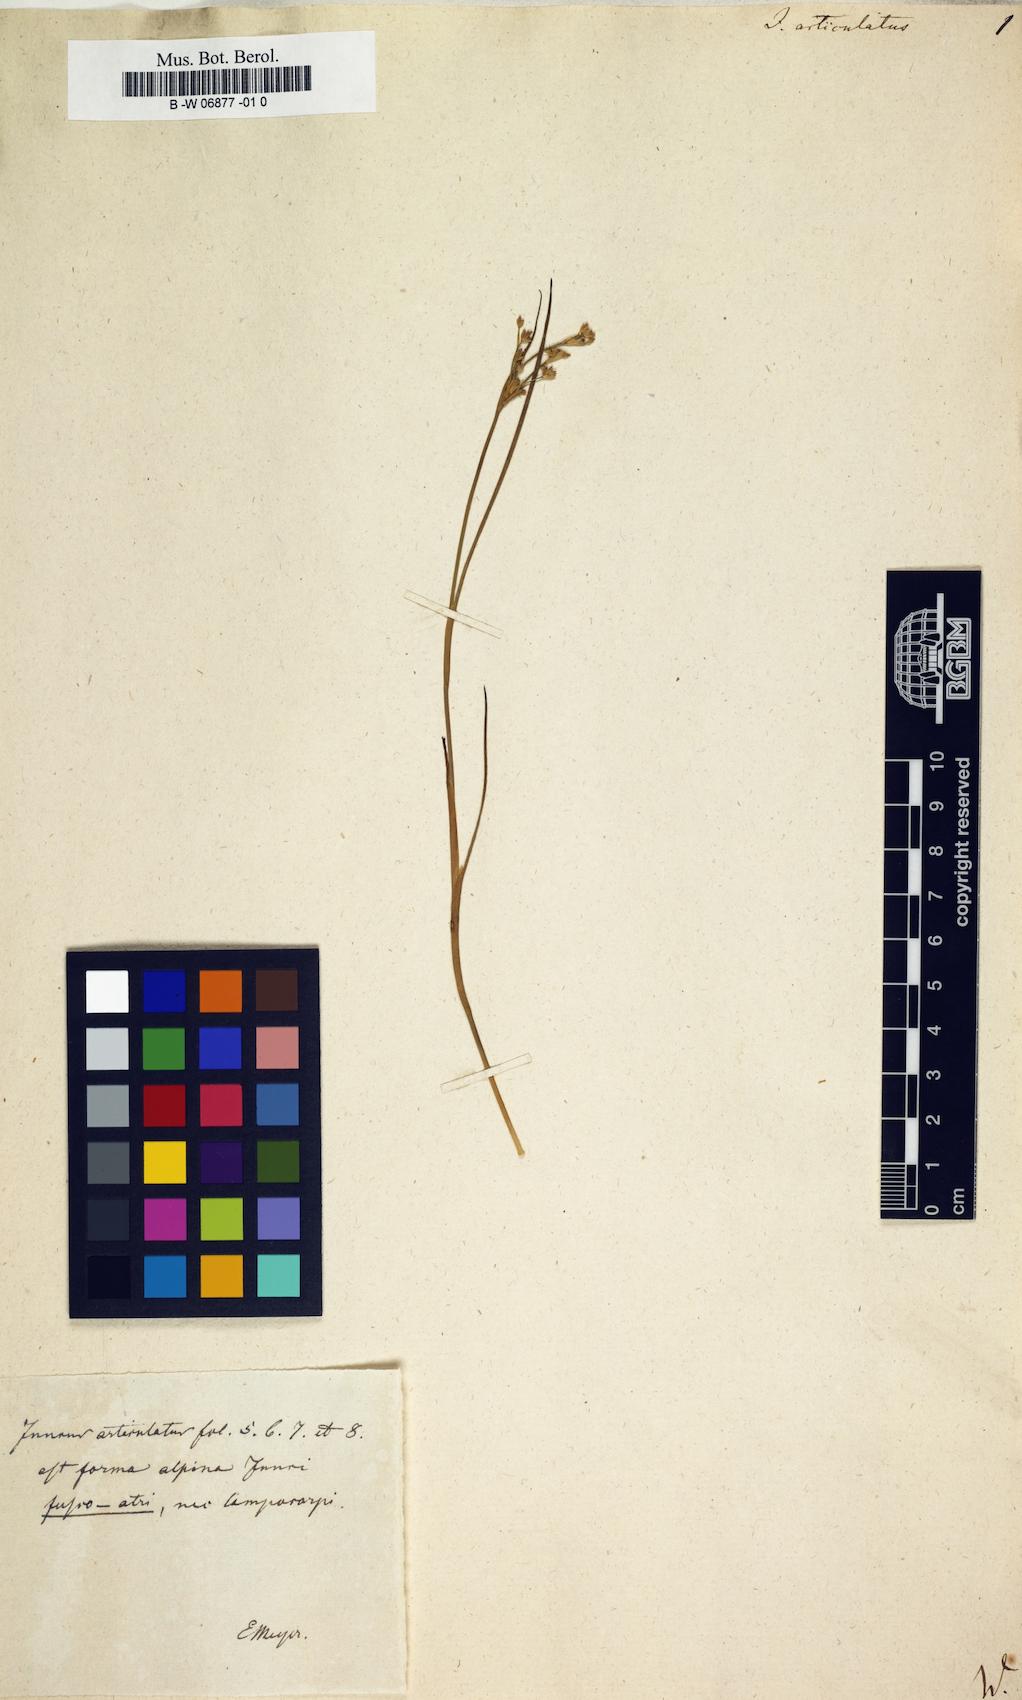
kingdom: Plantae
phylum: Tracheophyta
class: Liliopsida
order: Poales
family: Juncaceae
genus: Juncus
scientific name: Juncus articulatus
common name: Jointed rush
